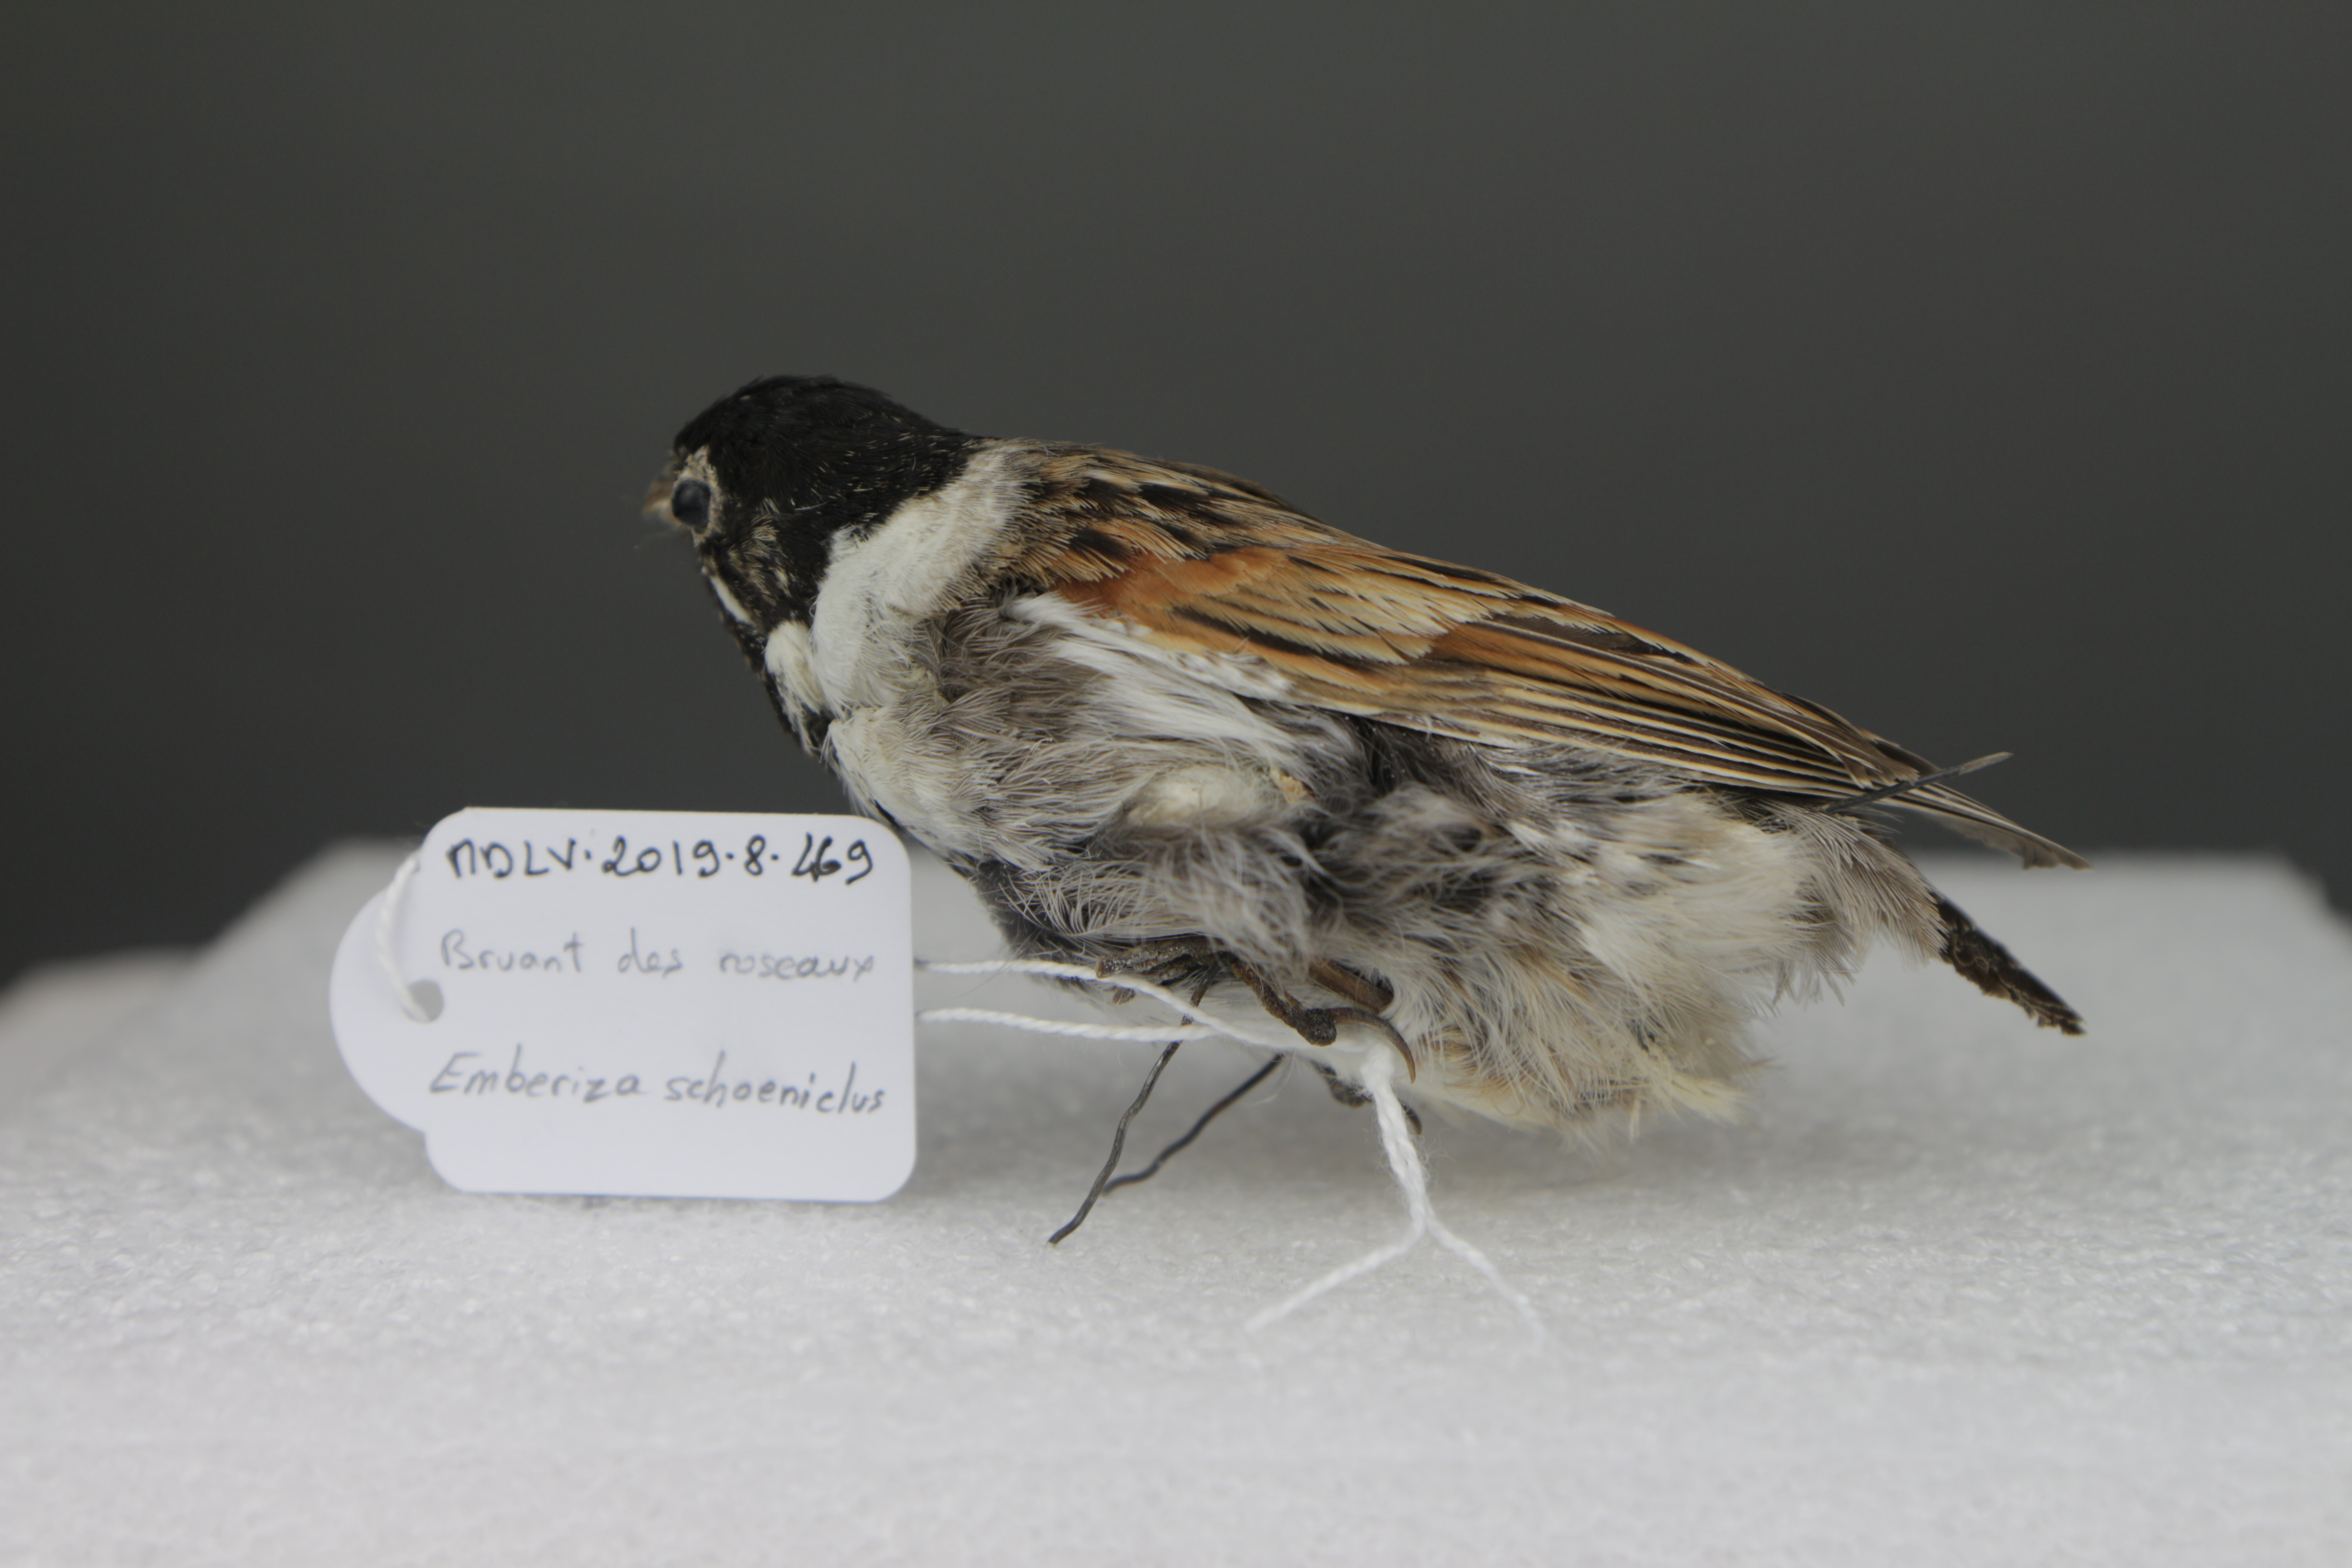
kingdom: Animalia
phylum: Chordata
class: Aves
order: Passeriformes
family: Emberizidae
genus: Emberiza
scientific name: Emberiza schoeniclus
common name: Reed bunting
